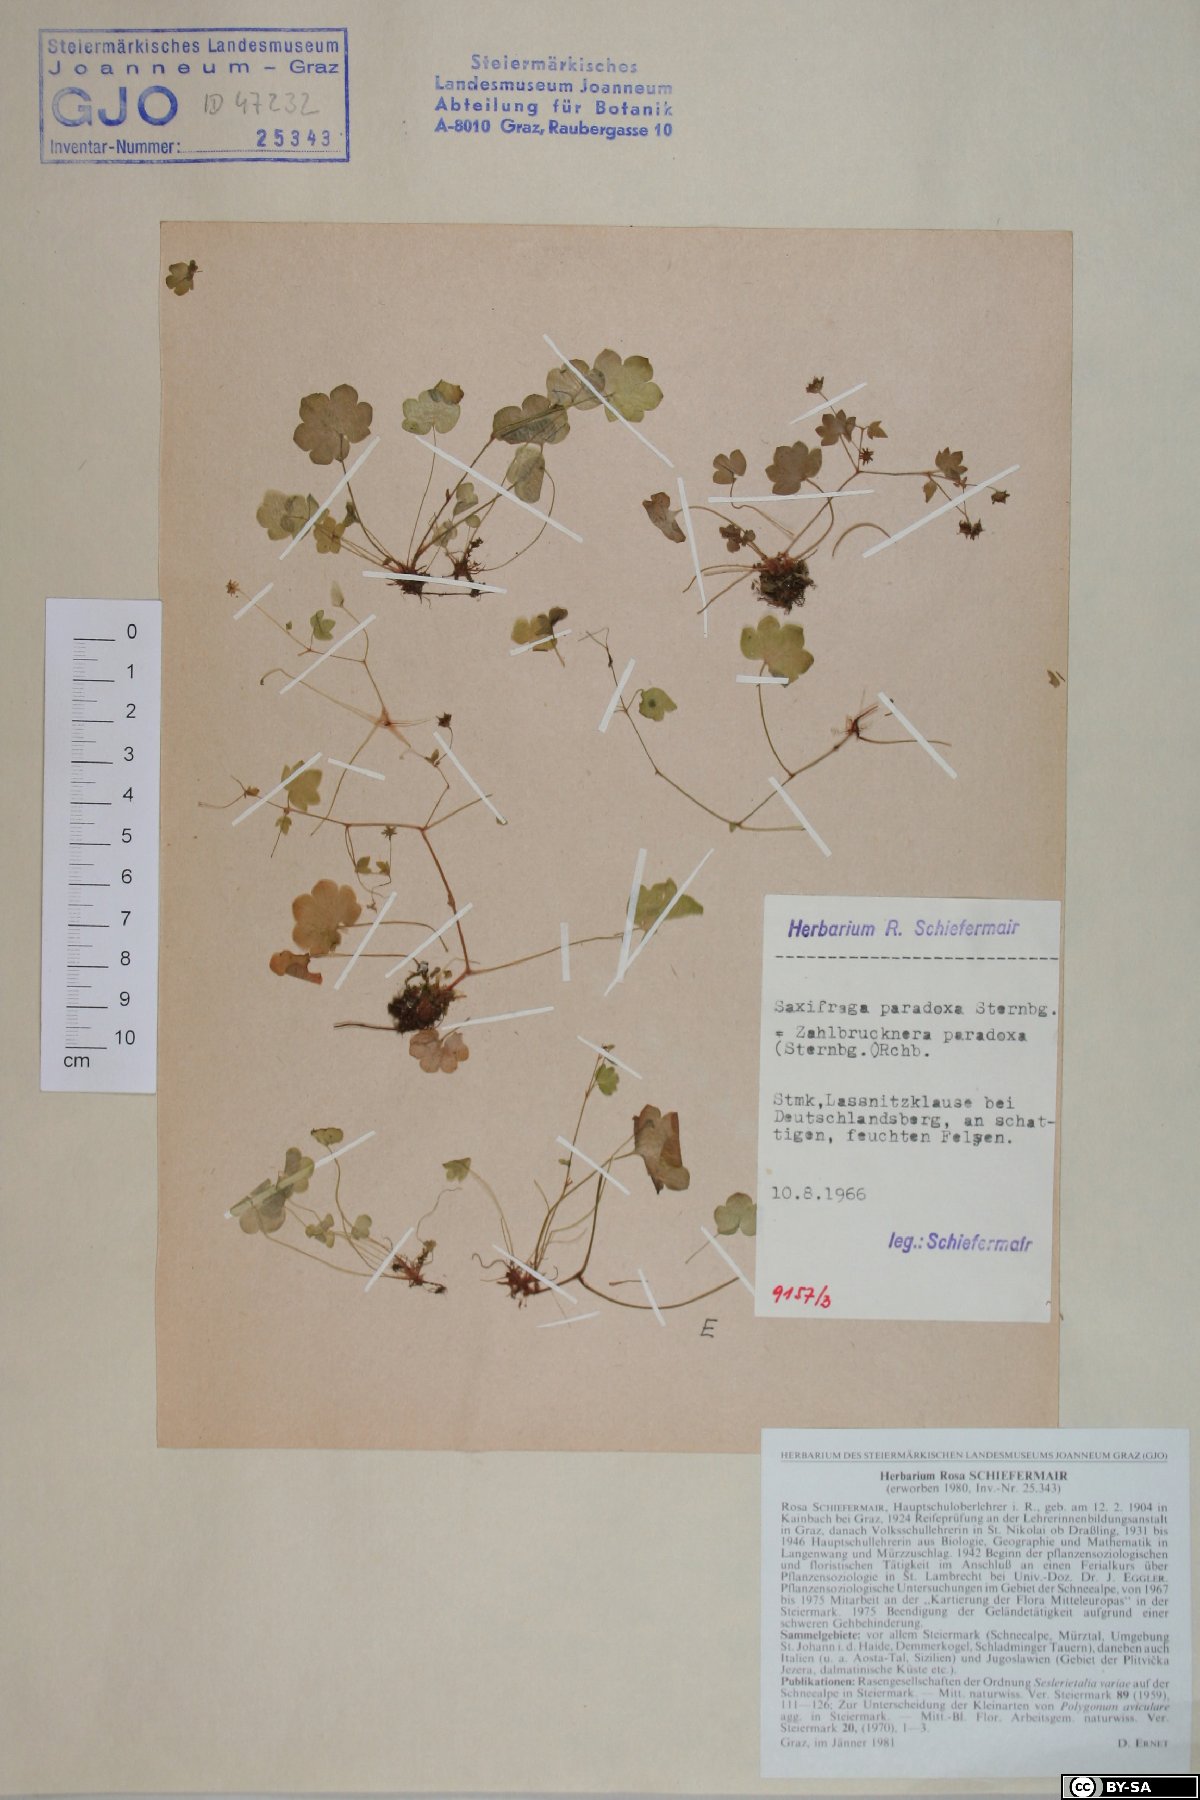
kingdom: Plantae
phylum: Tracheophyta
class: Magnoliopsida
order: Saxifragales
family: Saxifragaceae
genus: Saxifraga
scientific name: Saxifraga paradoxa
